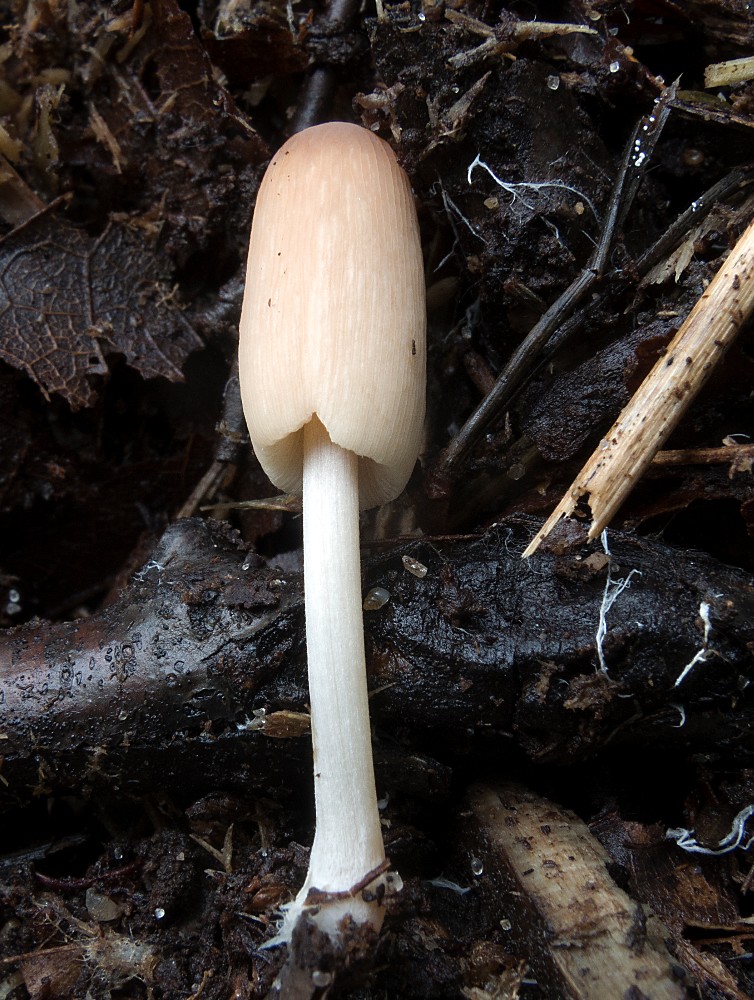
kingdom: Fungi
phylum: Basidiomycota
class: Agaricomycetes
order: Agaricales
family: Psathyrellaceae
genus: Parasola
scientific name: Parasola lilatincta
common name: lillatonet hjulhat
